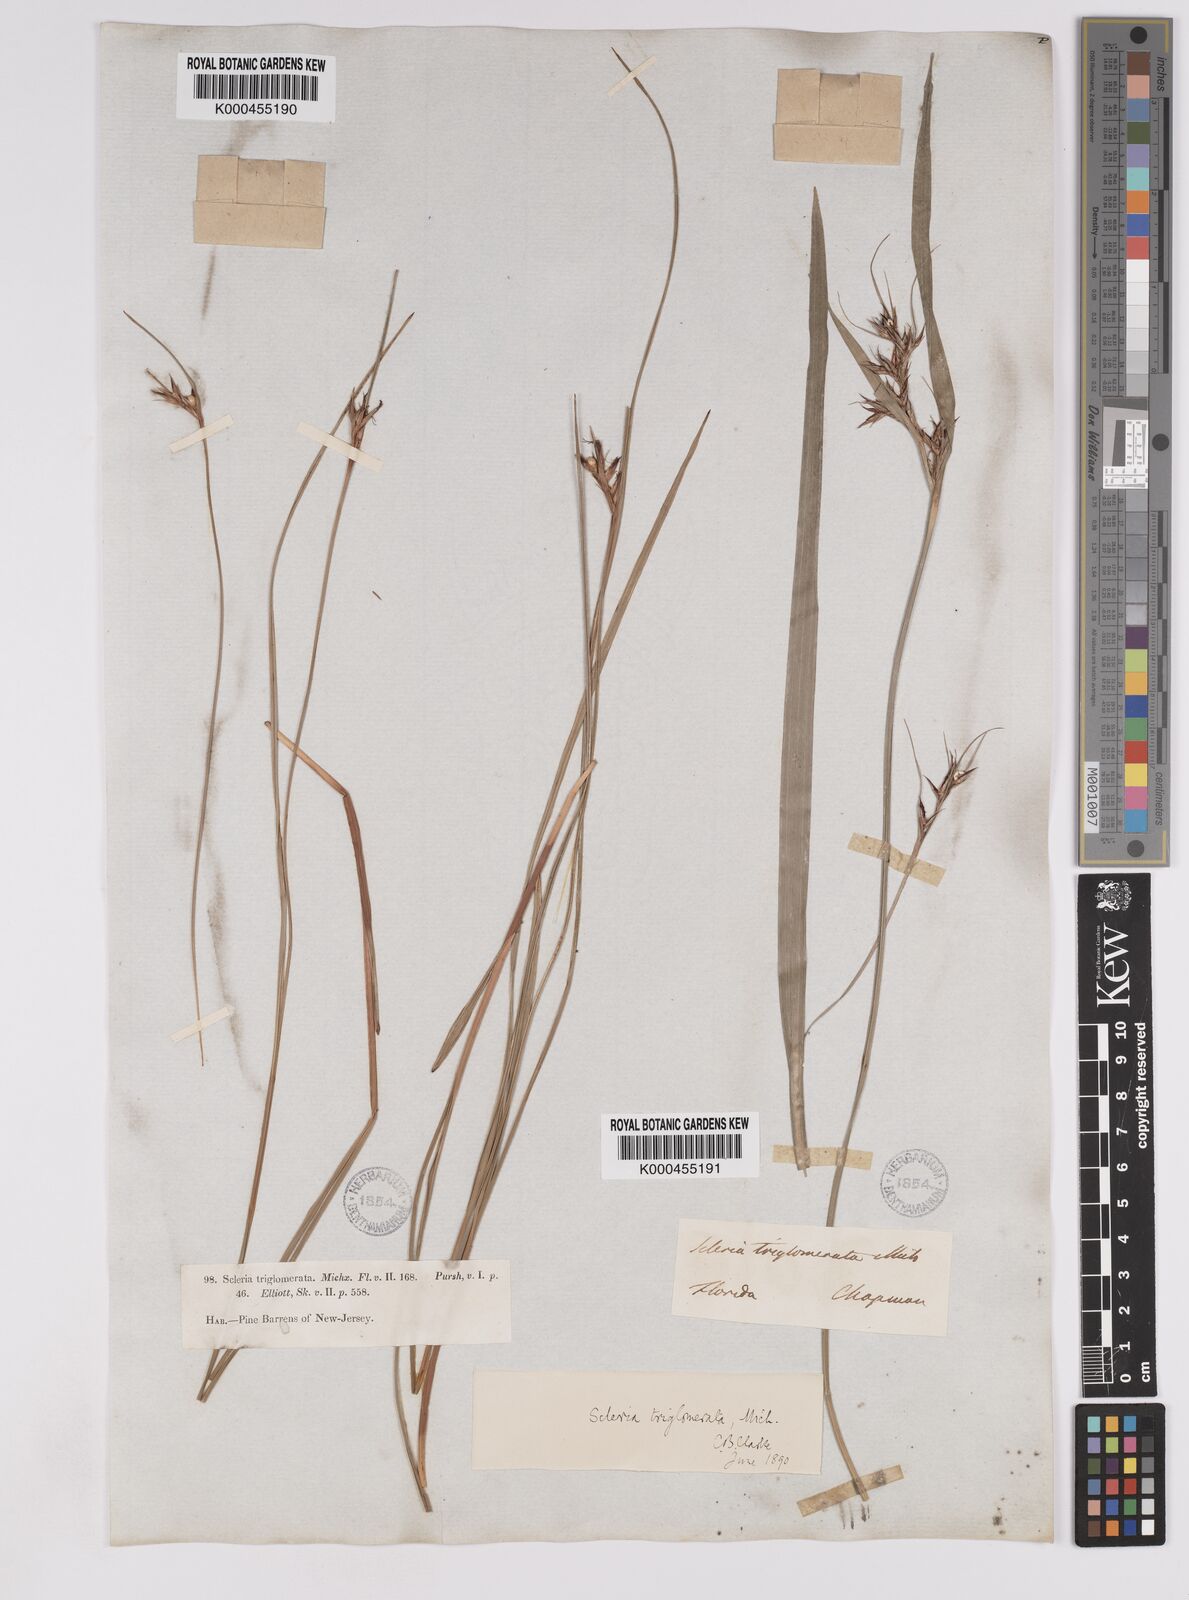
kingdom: Plantae
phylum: Tracheophyta
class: Liliopsida
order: Poales
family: Cyperaceae
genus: Scleria
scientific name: Scleria triglomerata
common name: Whip nutrush
